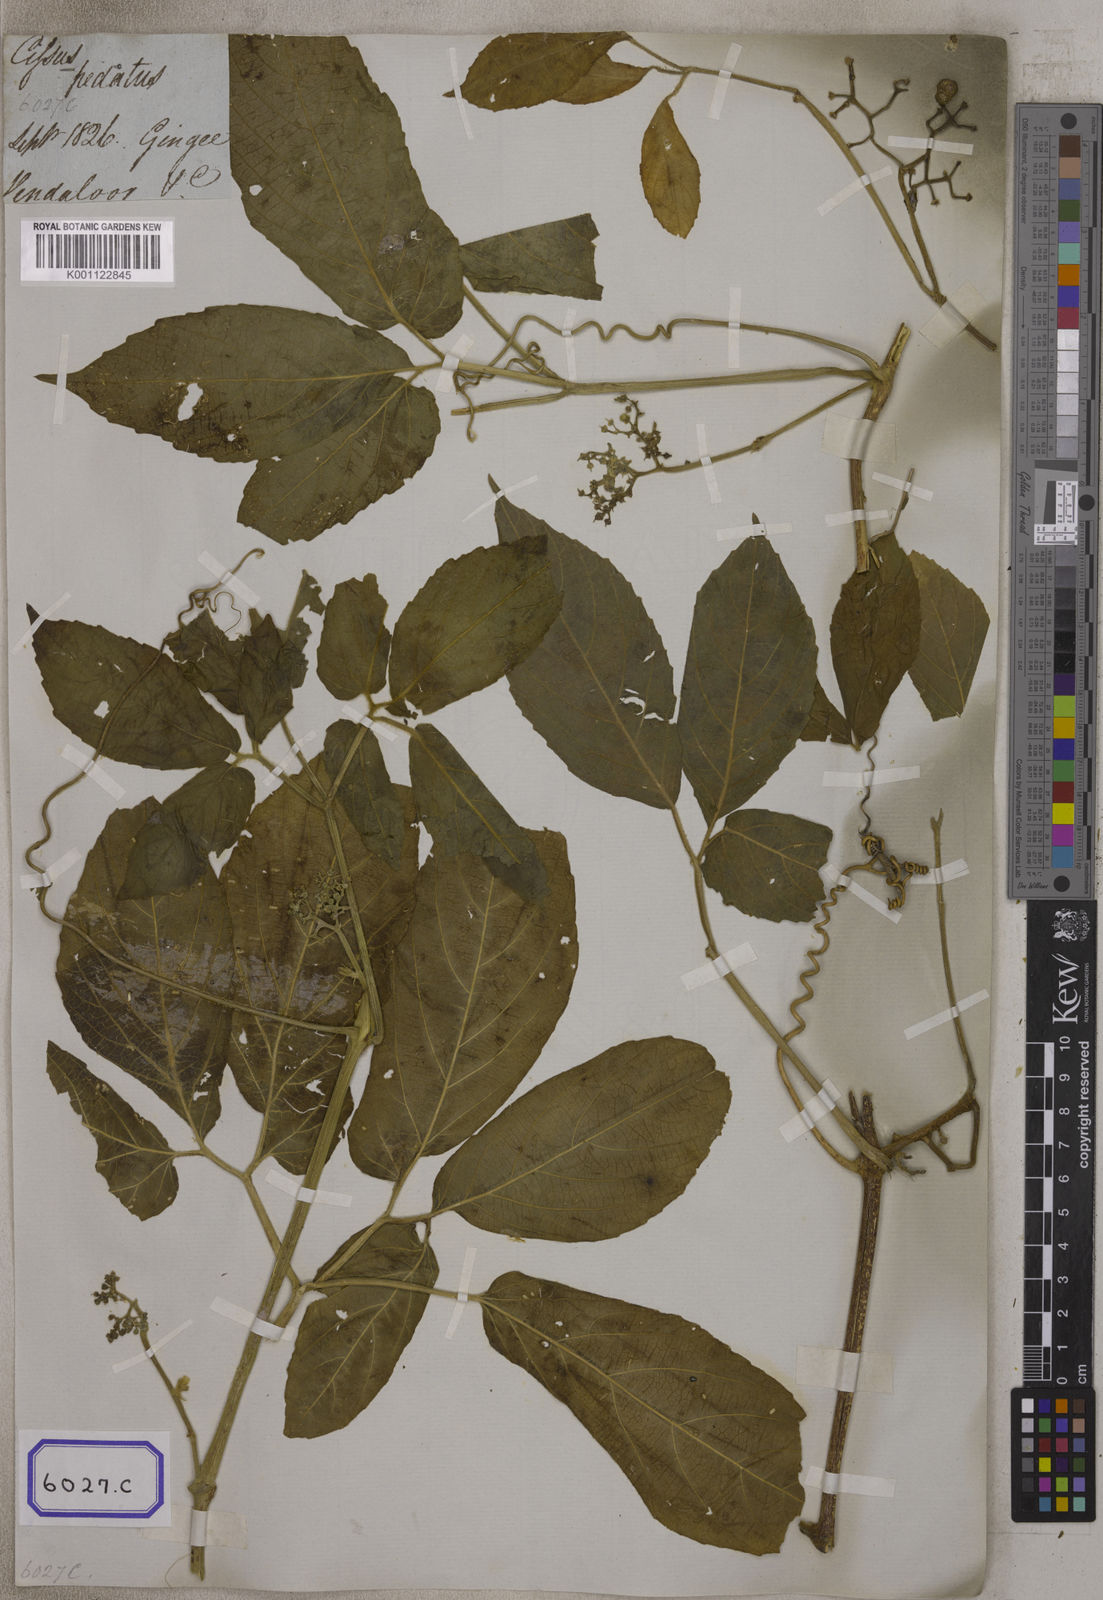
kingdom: Plantae
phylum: Tracheophyta
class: Magnoliopsida
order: Vitales
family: Vitaceae
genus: Cayratia
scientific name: Cayratia pedata
